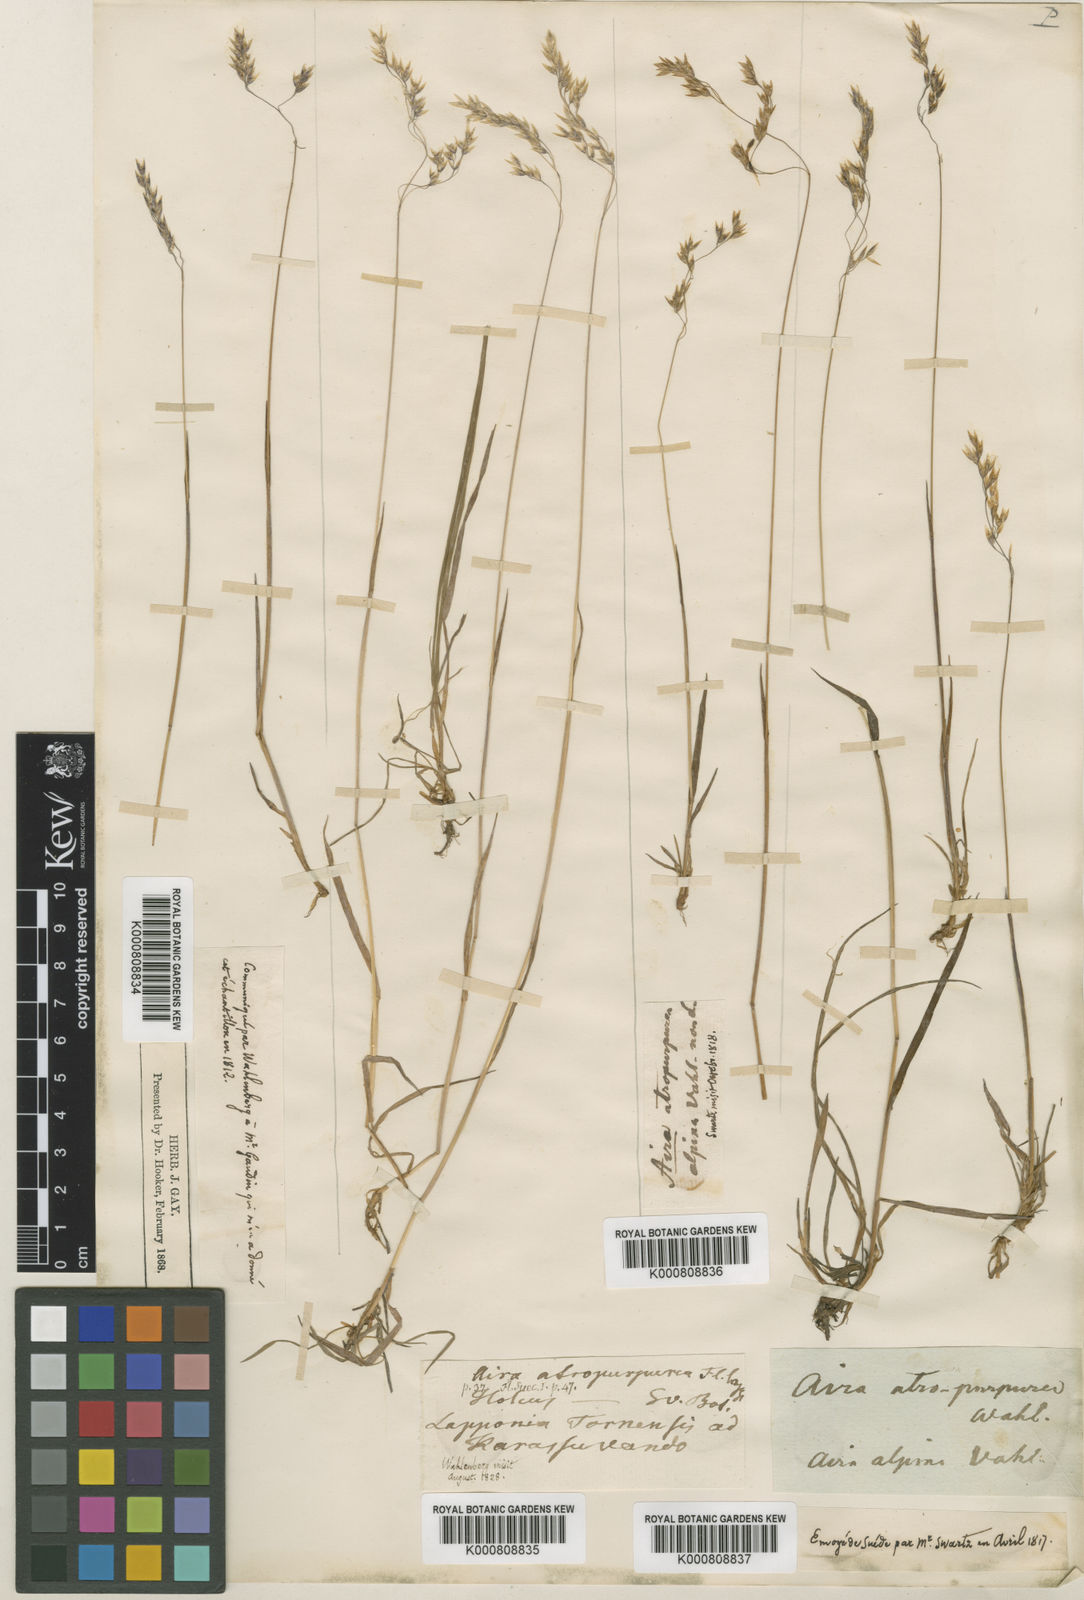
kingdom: Plantae
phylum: Tracheophyta
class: Liliopsida
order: Poales
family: Poaceae
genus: Vahlodea
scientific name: Vahlodea atropurpurea
